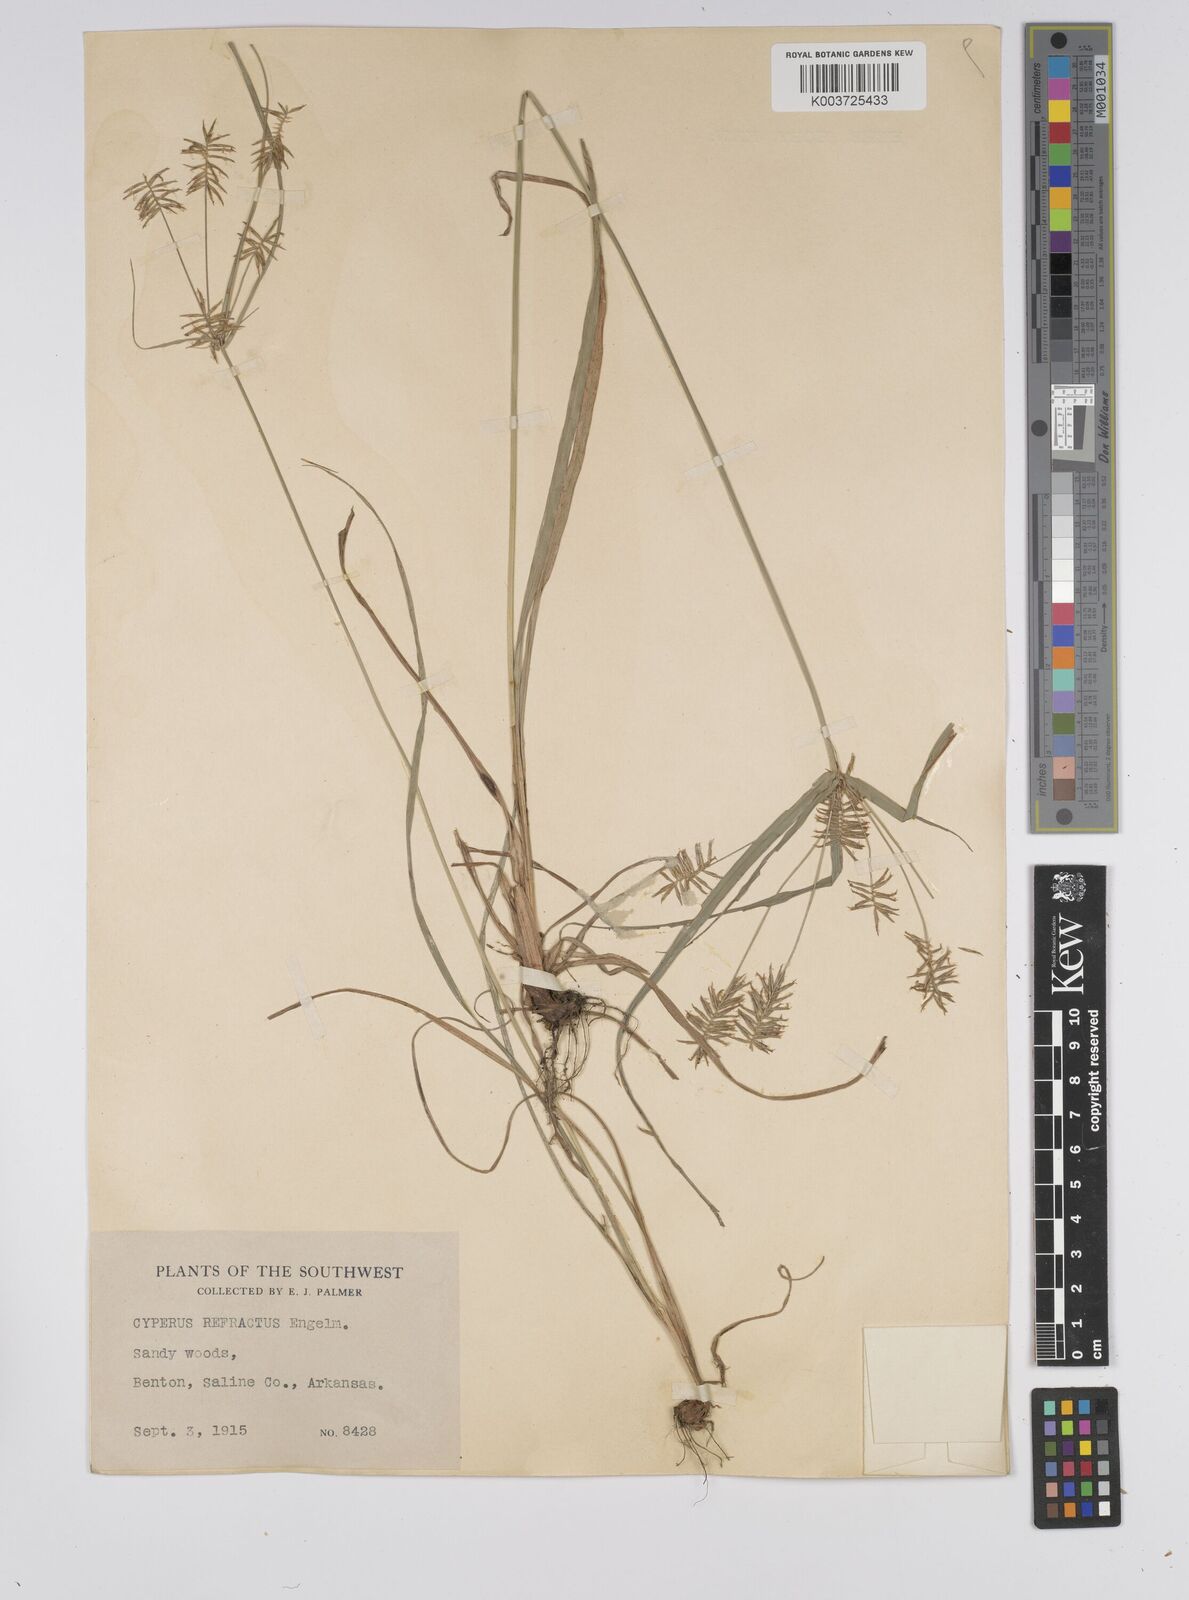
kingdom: Plantae
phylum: Tracheophyta
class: Liliopsida
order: Poales
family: Cyperaceae
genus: Cyperus
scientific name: Cyperus refractus
